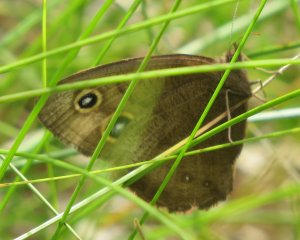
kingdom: Animalia
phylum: Arthropoda
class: Insecta
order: Lepidoptera
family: Nymphalidae
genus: Cercyonis
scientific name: Cercyonis pegala
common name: Common Wood-Nymph
